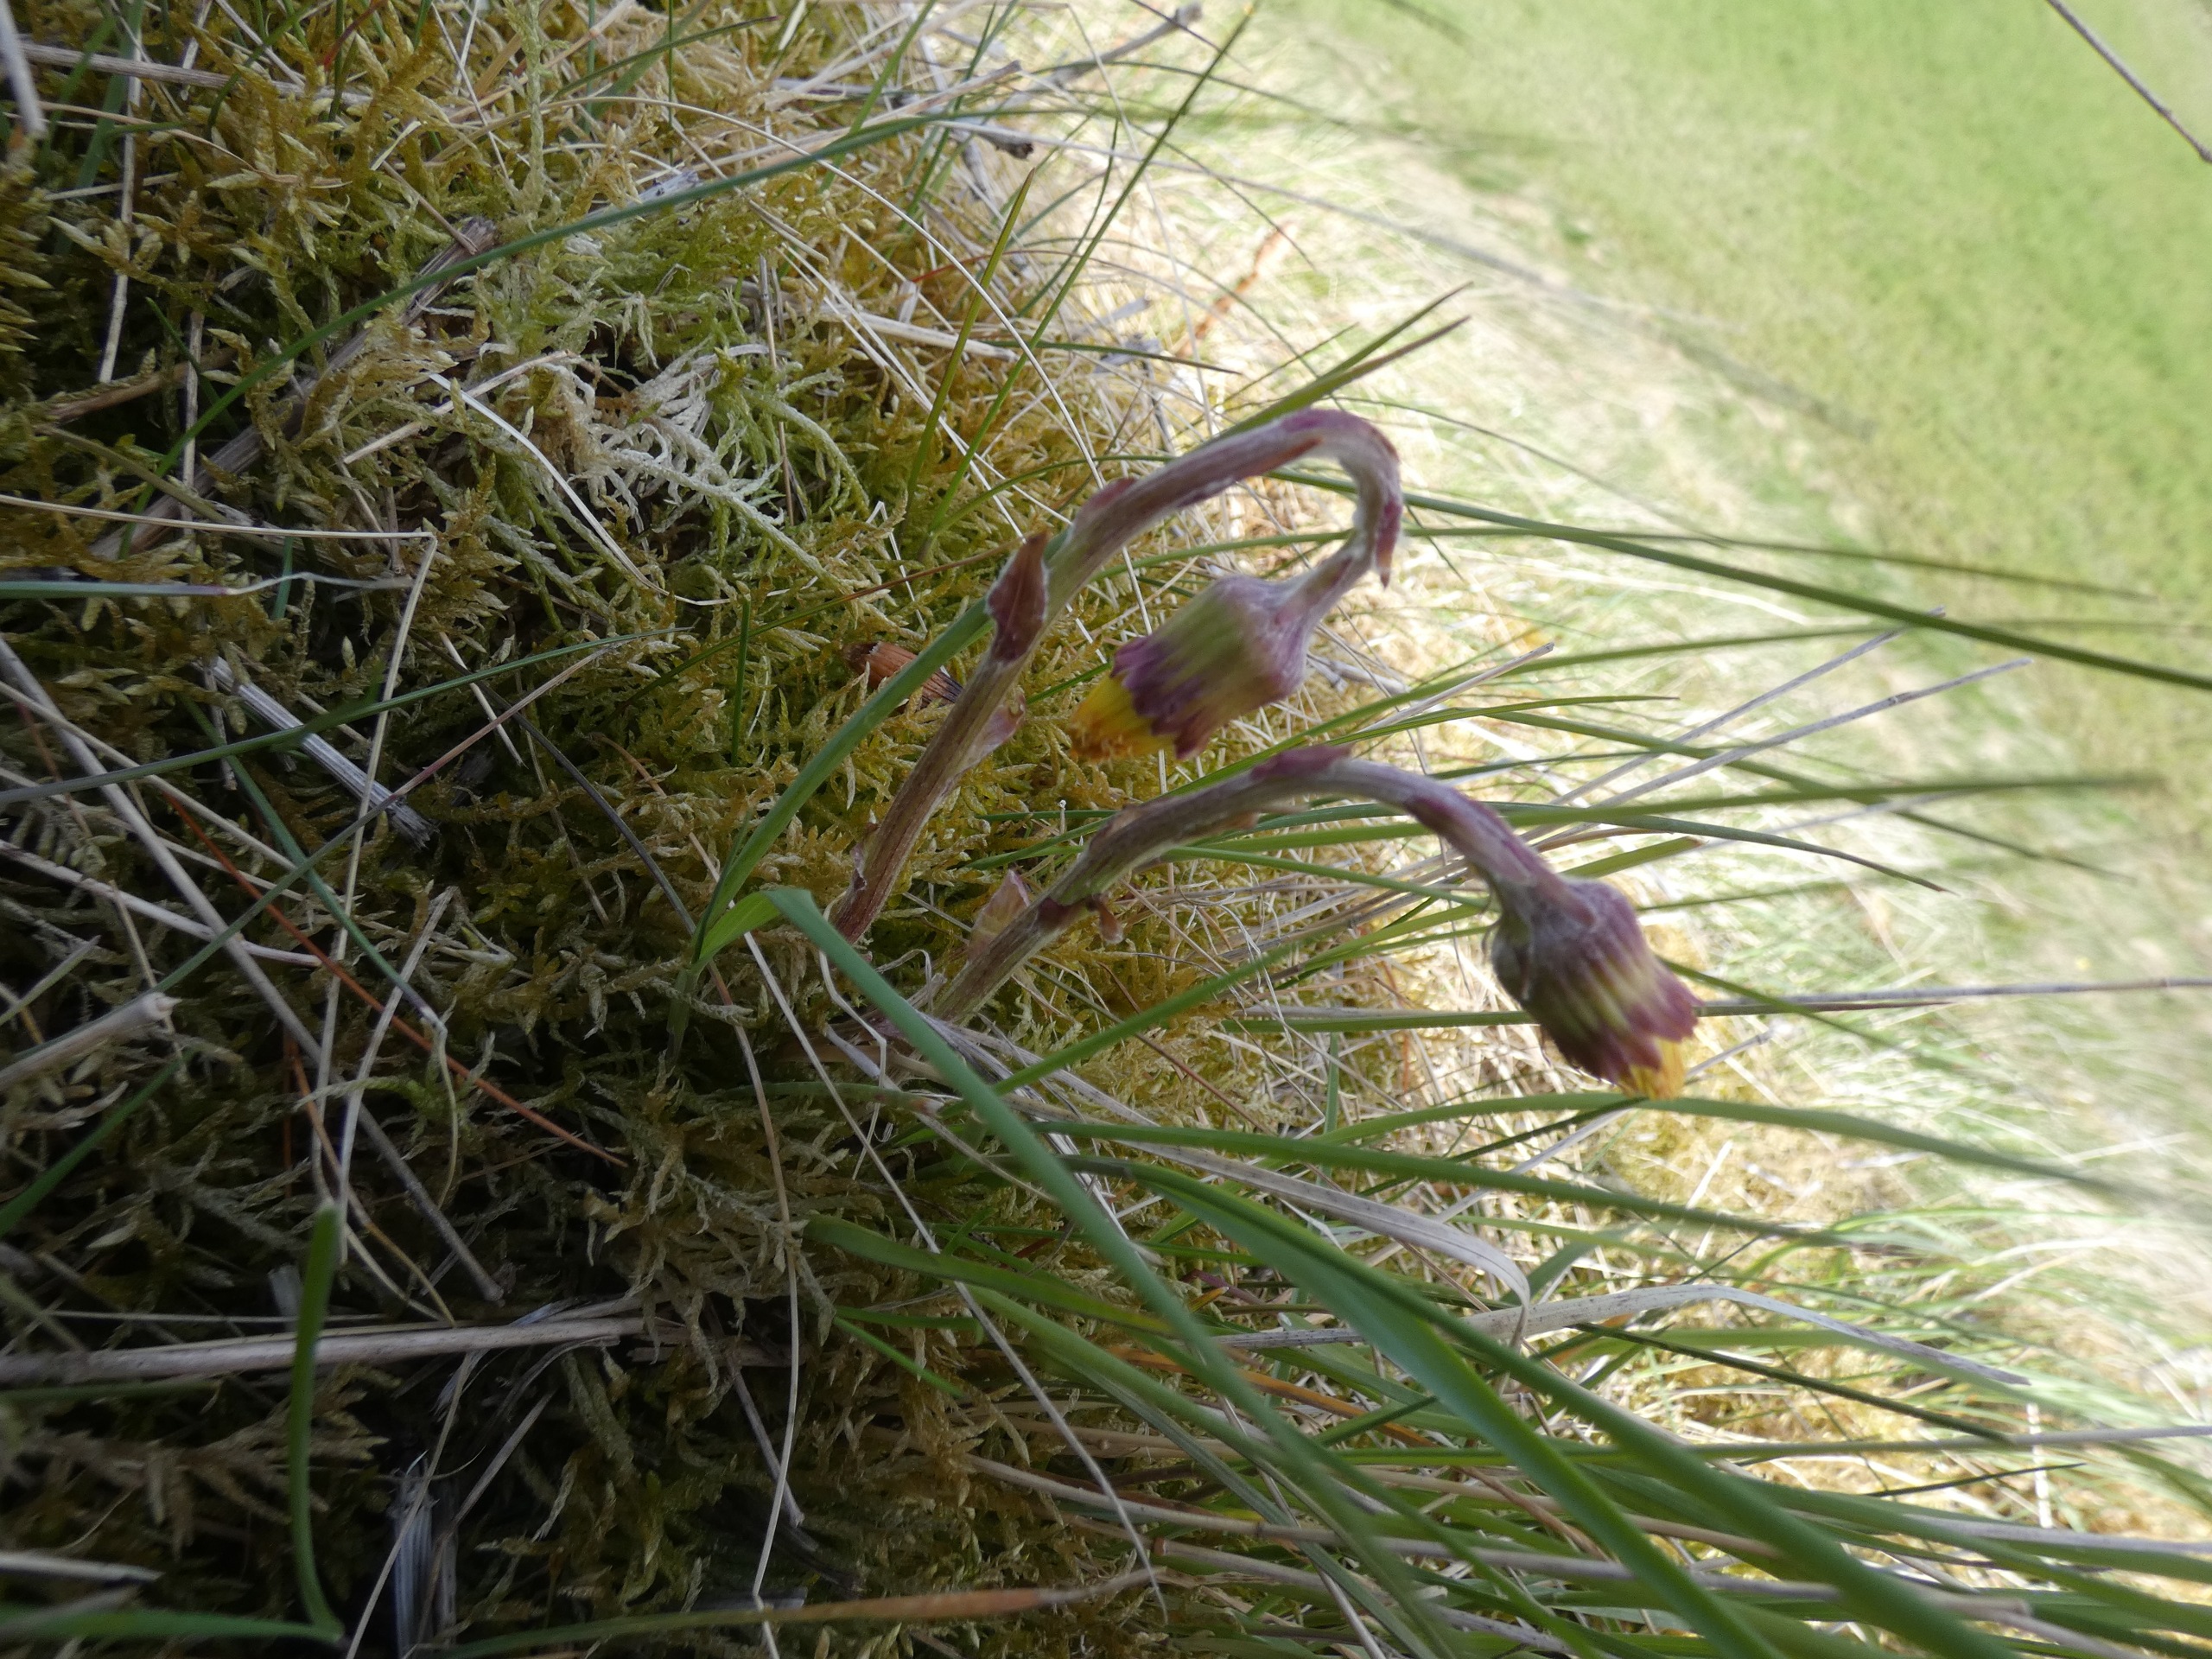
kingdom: Plantae
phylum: Tracheophyta
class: Magnoliopsida
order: Asterales
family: Asteraceae
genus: Tussilago
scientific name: Tussilago farfara
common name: Følfod
